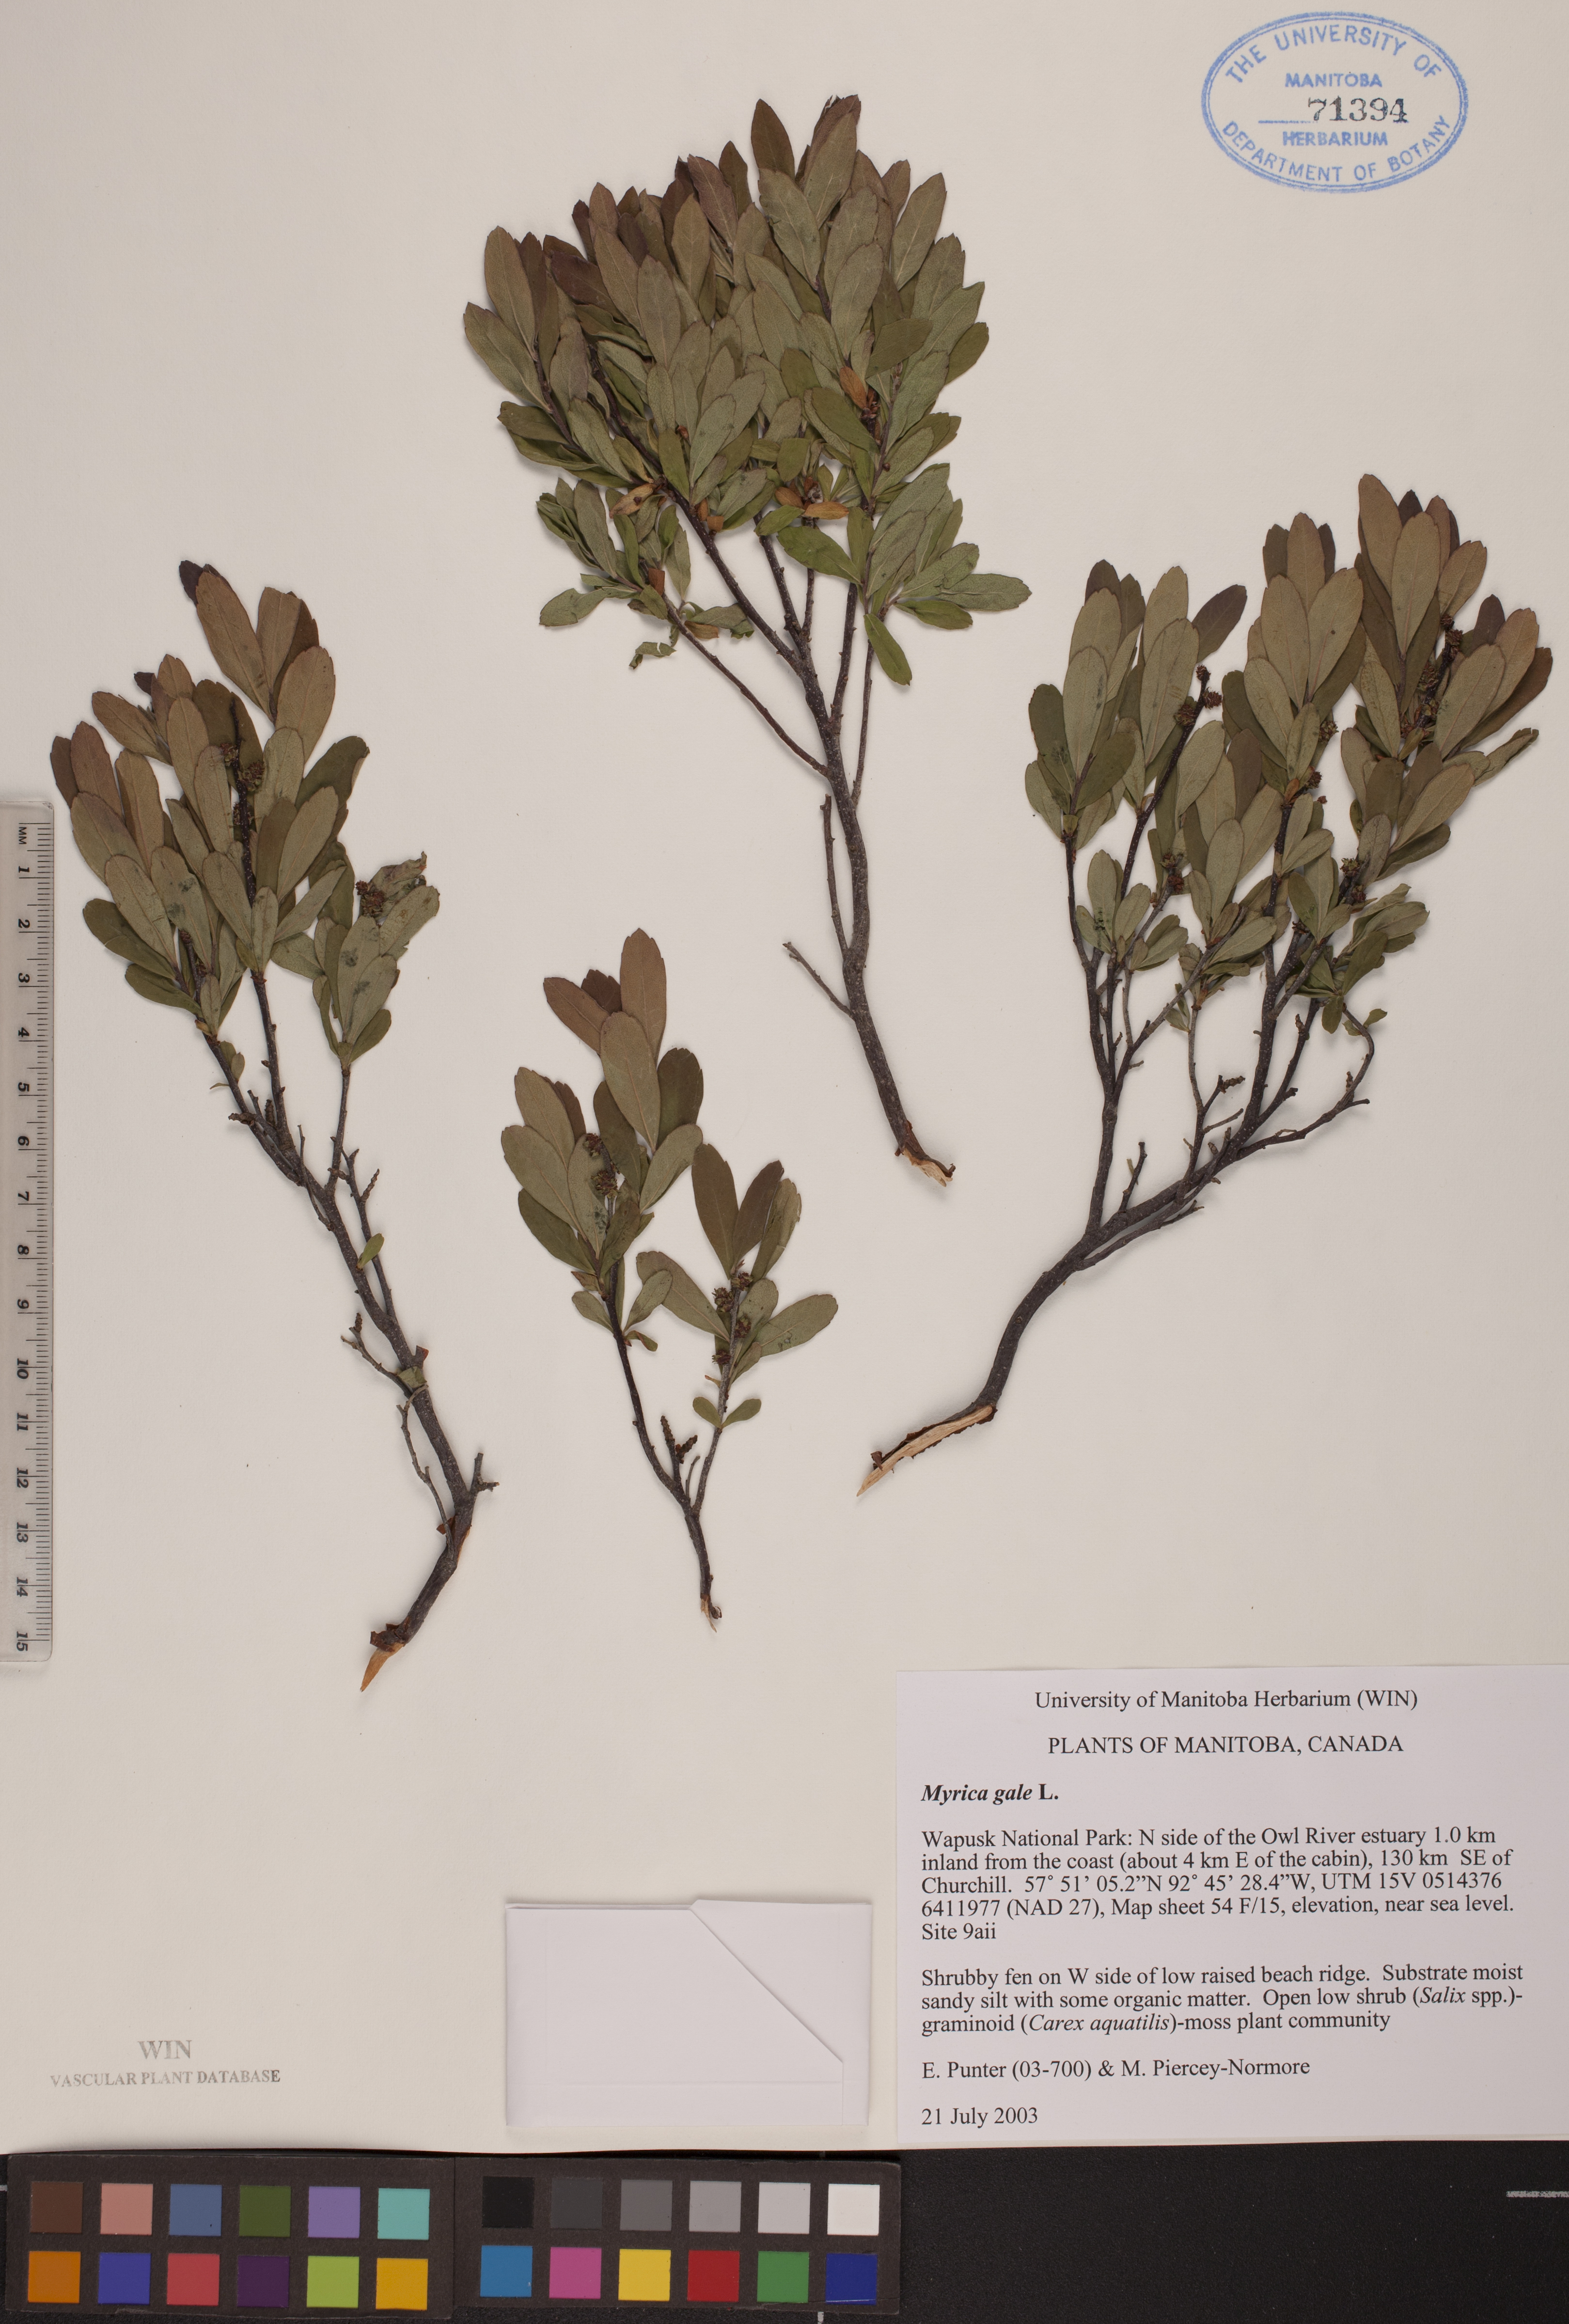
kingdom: Plantae
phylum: Tracheophyta
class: Magnoliopsida
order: Fagales
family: Myricaceae
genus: Myrica
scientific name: Myrica gale
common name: Sweet gale
